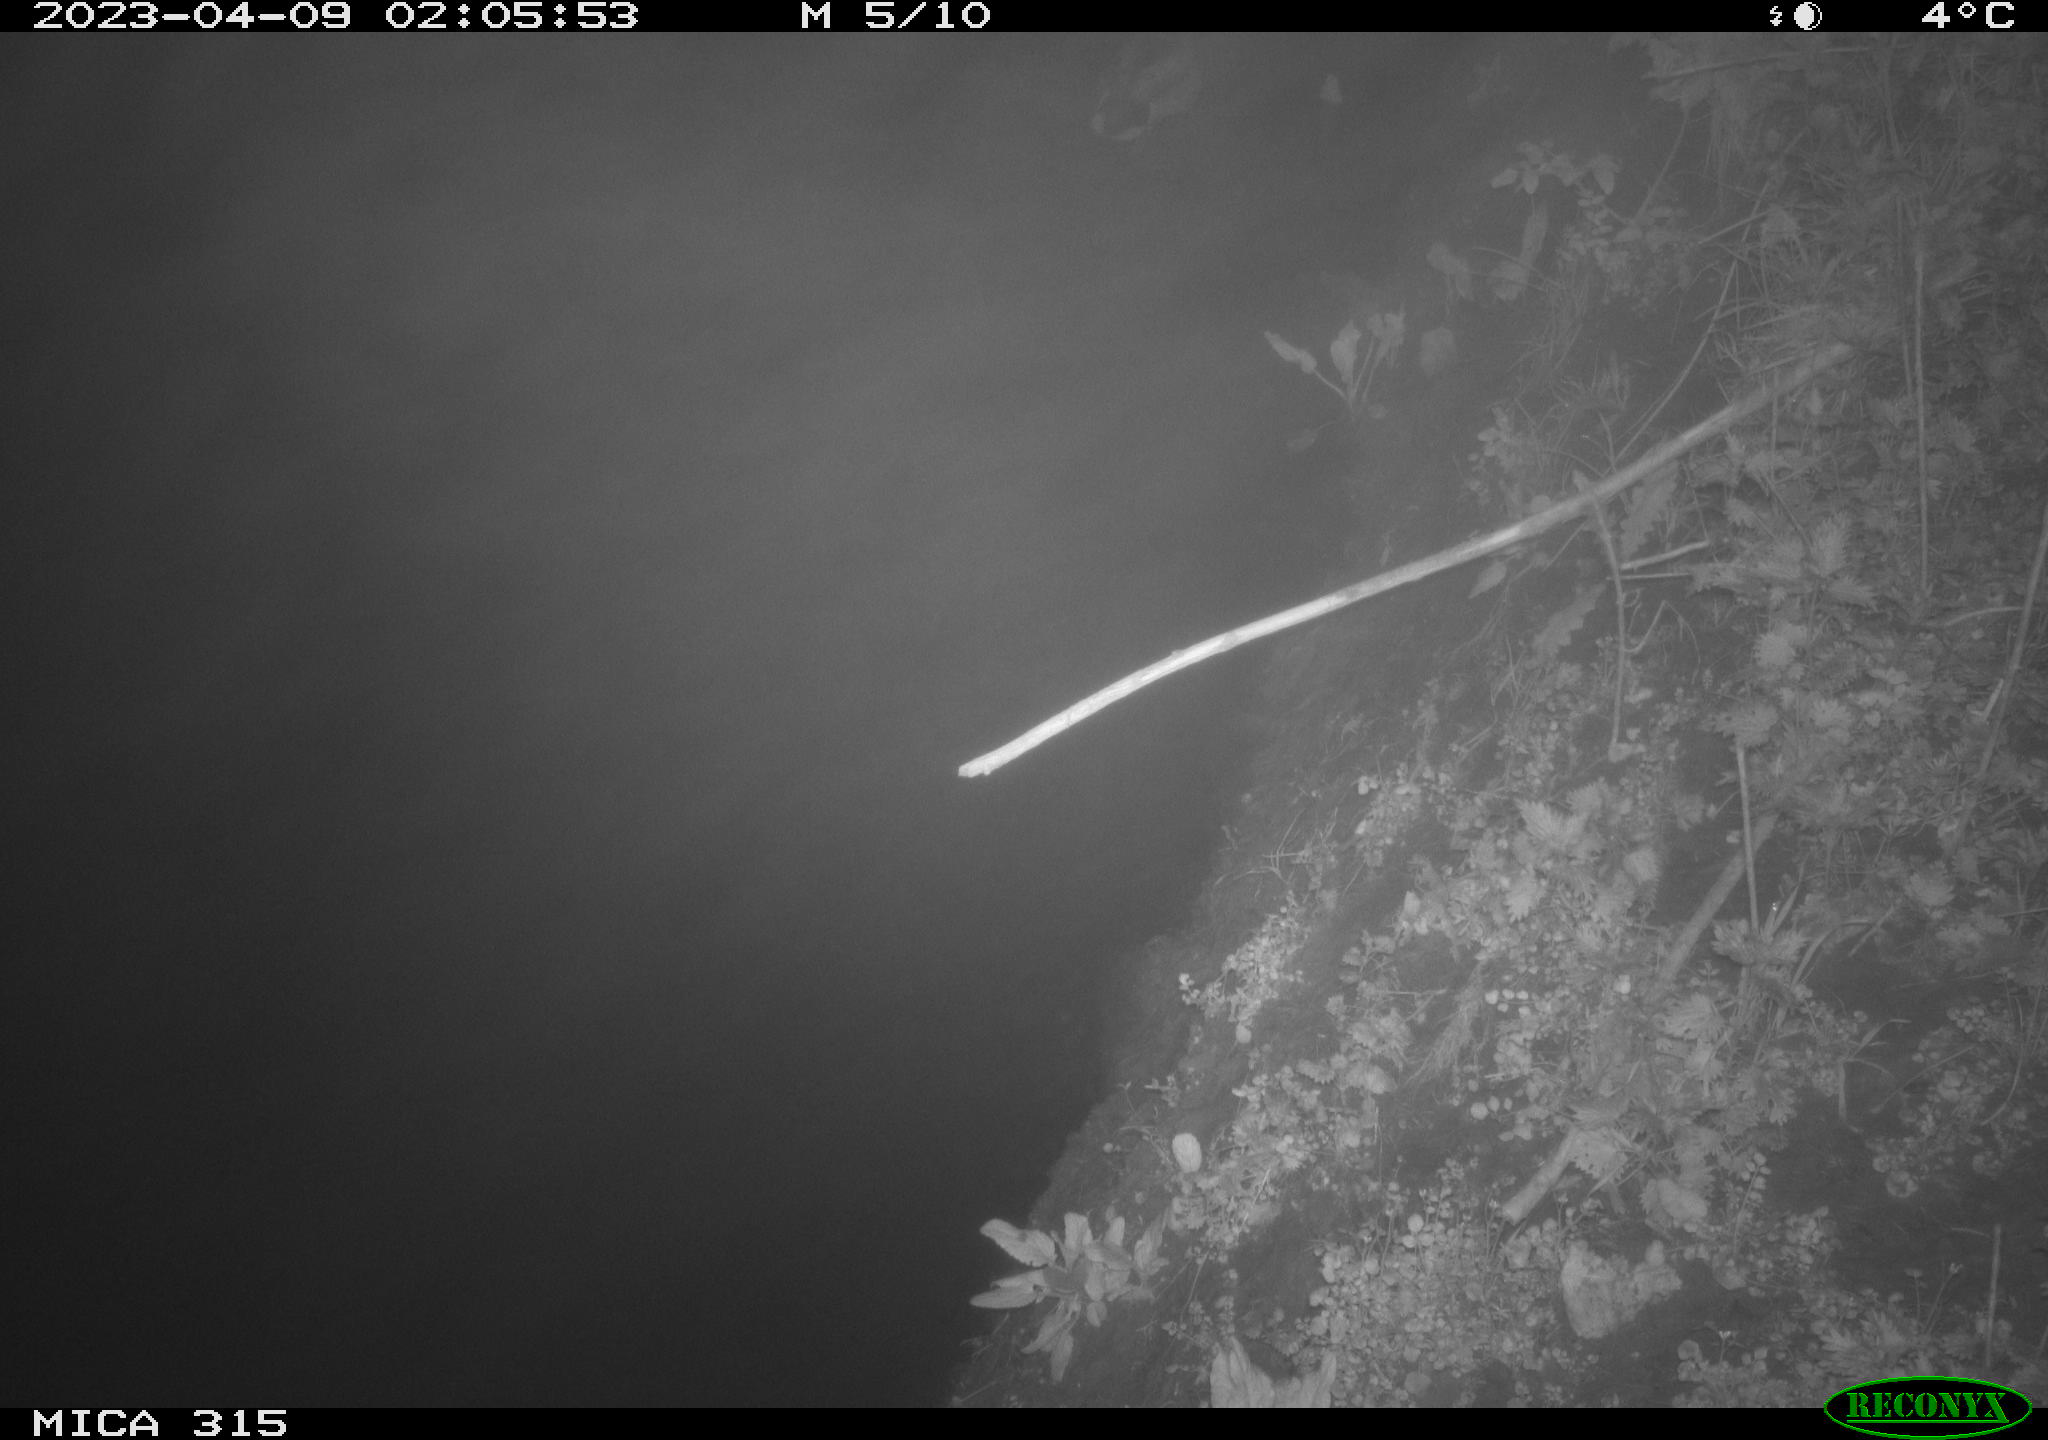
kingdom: Animalia
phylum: Chordata
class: Aves
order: Anseriformes
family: Anatidae
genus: Anas
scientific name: Anas
